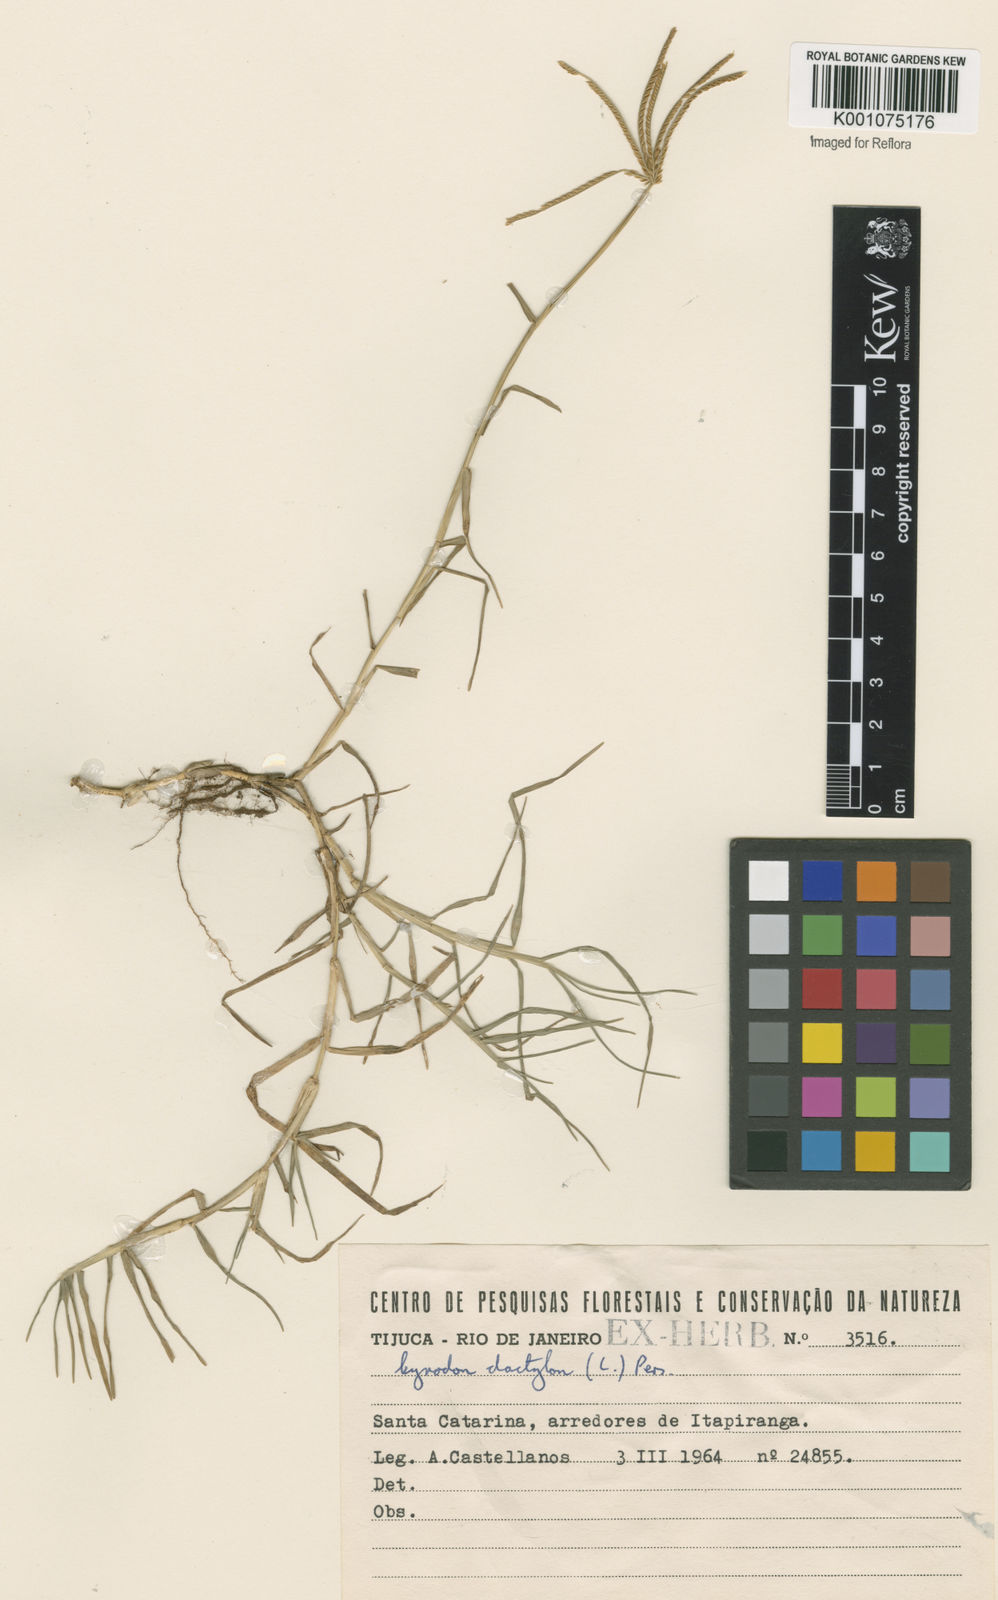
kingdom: Plantae
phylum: Tracheophyta
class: Liliopsida
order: Poales
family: Poaceae
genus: Cynodon
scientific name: Cynodon dactylon
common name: Bermuda grass
